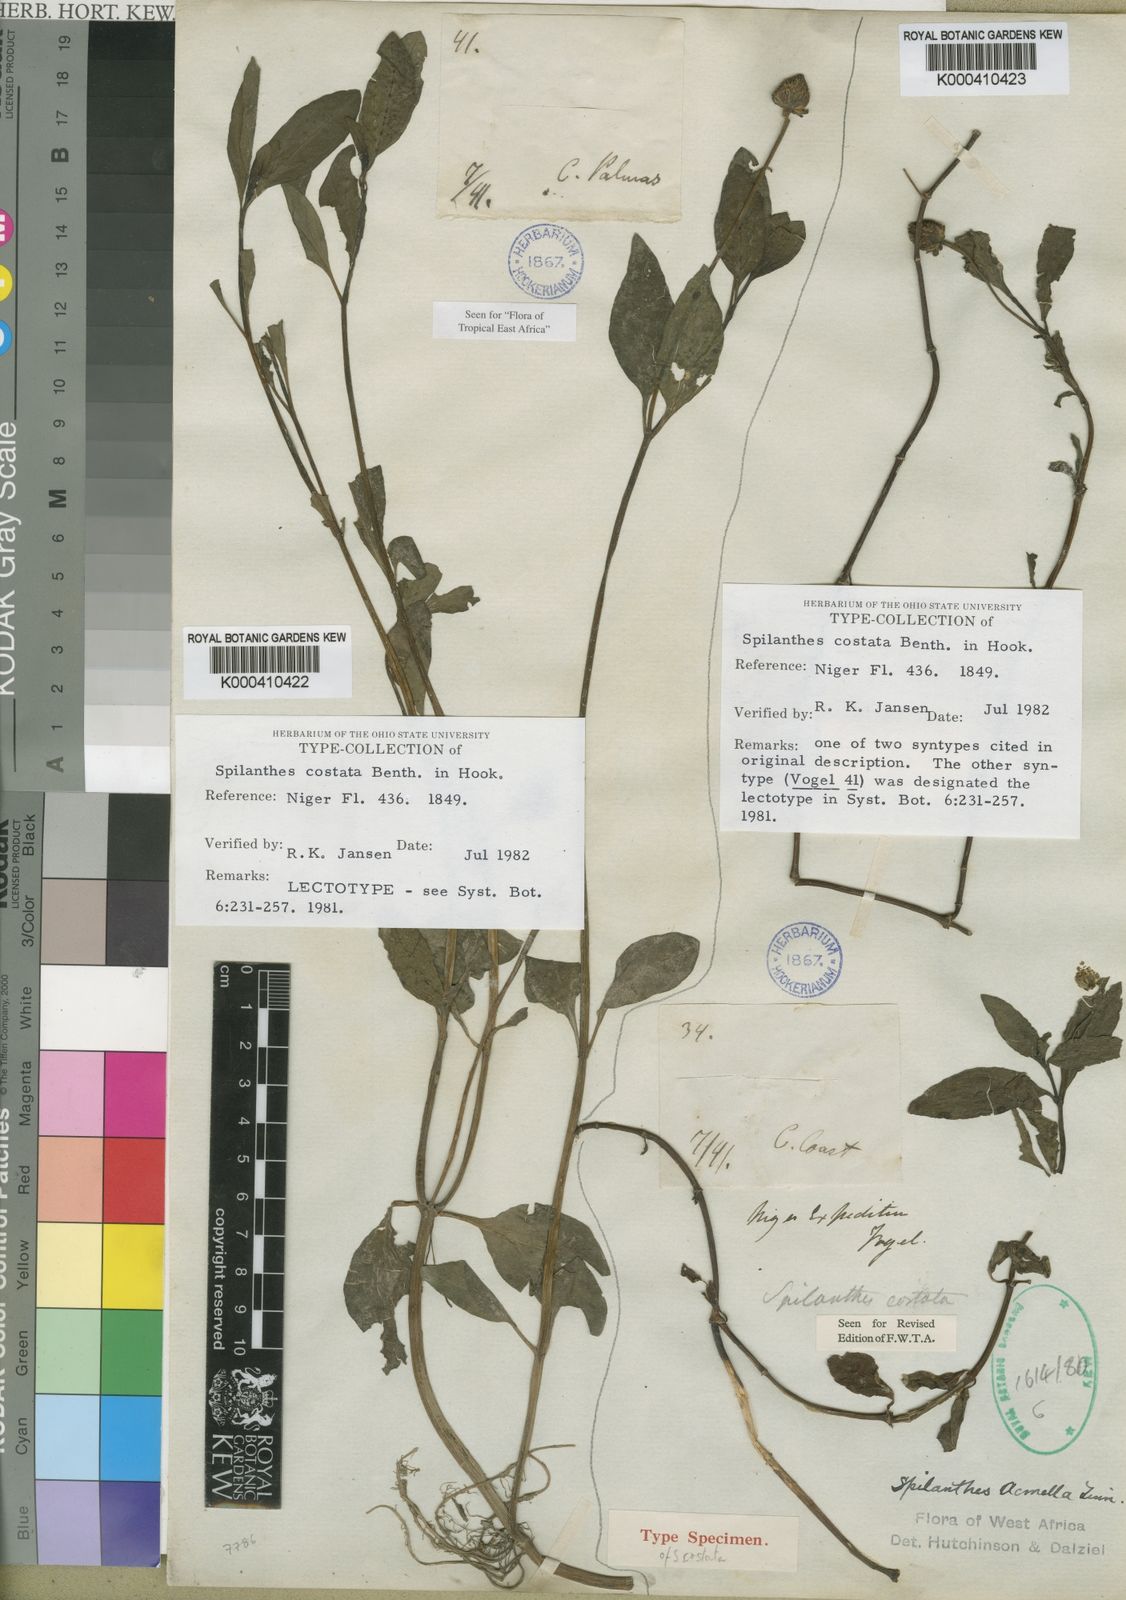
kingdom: Plantae
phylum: Tracheophyta
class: Magnoliopsida
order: Asterales
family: Asteraceae
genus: Spilanthes
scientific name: Spilanthes costata
